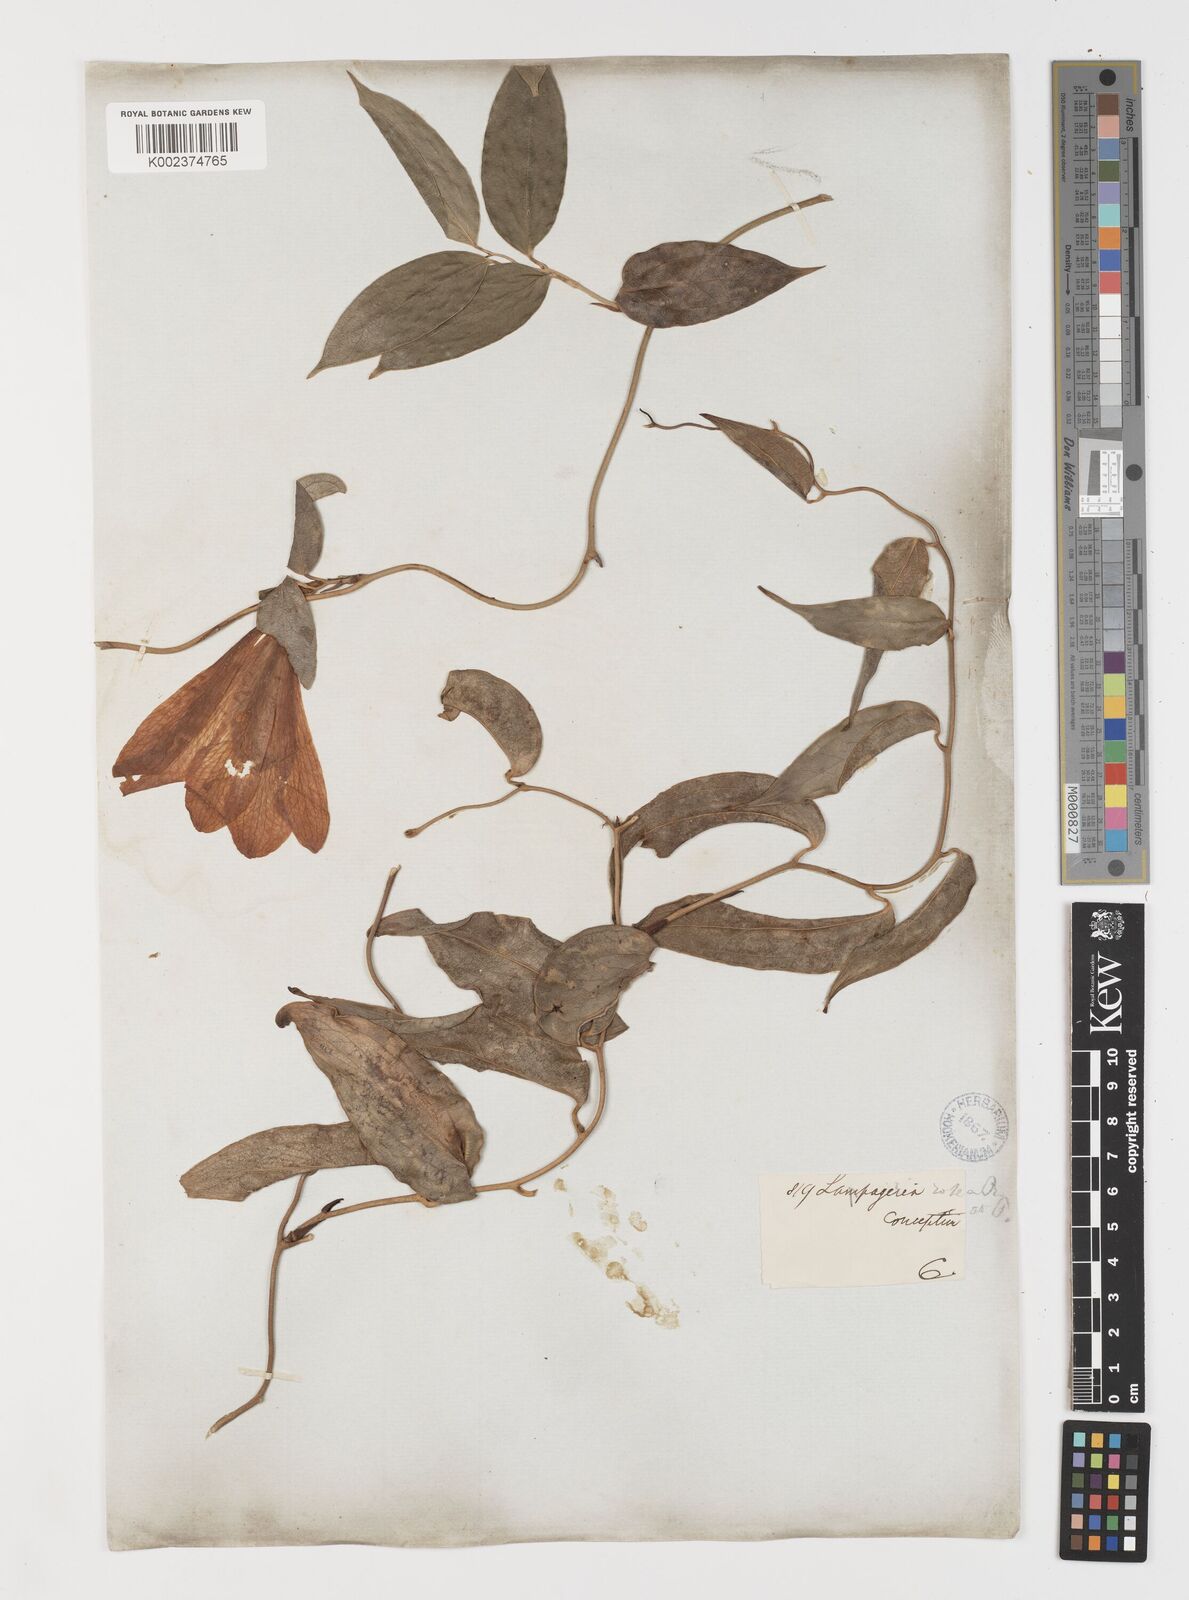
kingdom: Plantae
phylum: Tracheophyta
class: Liliopsida
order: Liliales
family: Philesiaceae
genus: Lapageria
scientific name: Lapageria rosea
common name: Chilean-bellflower
